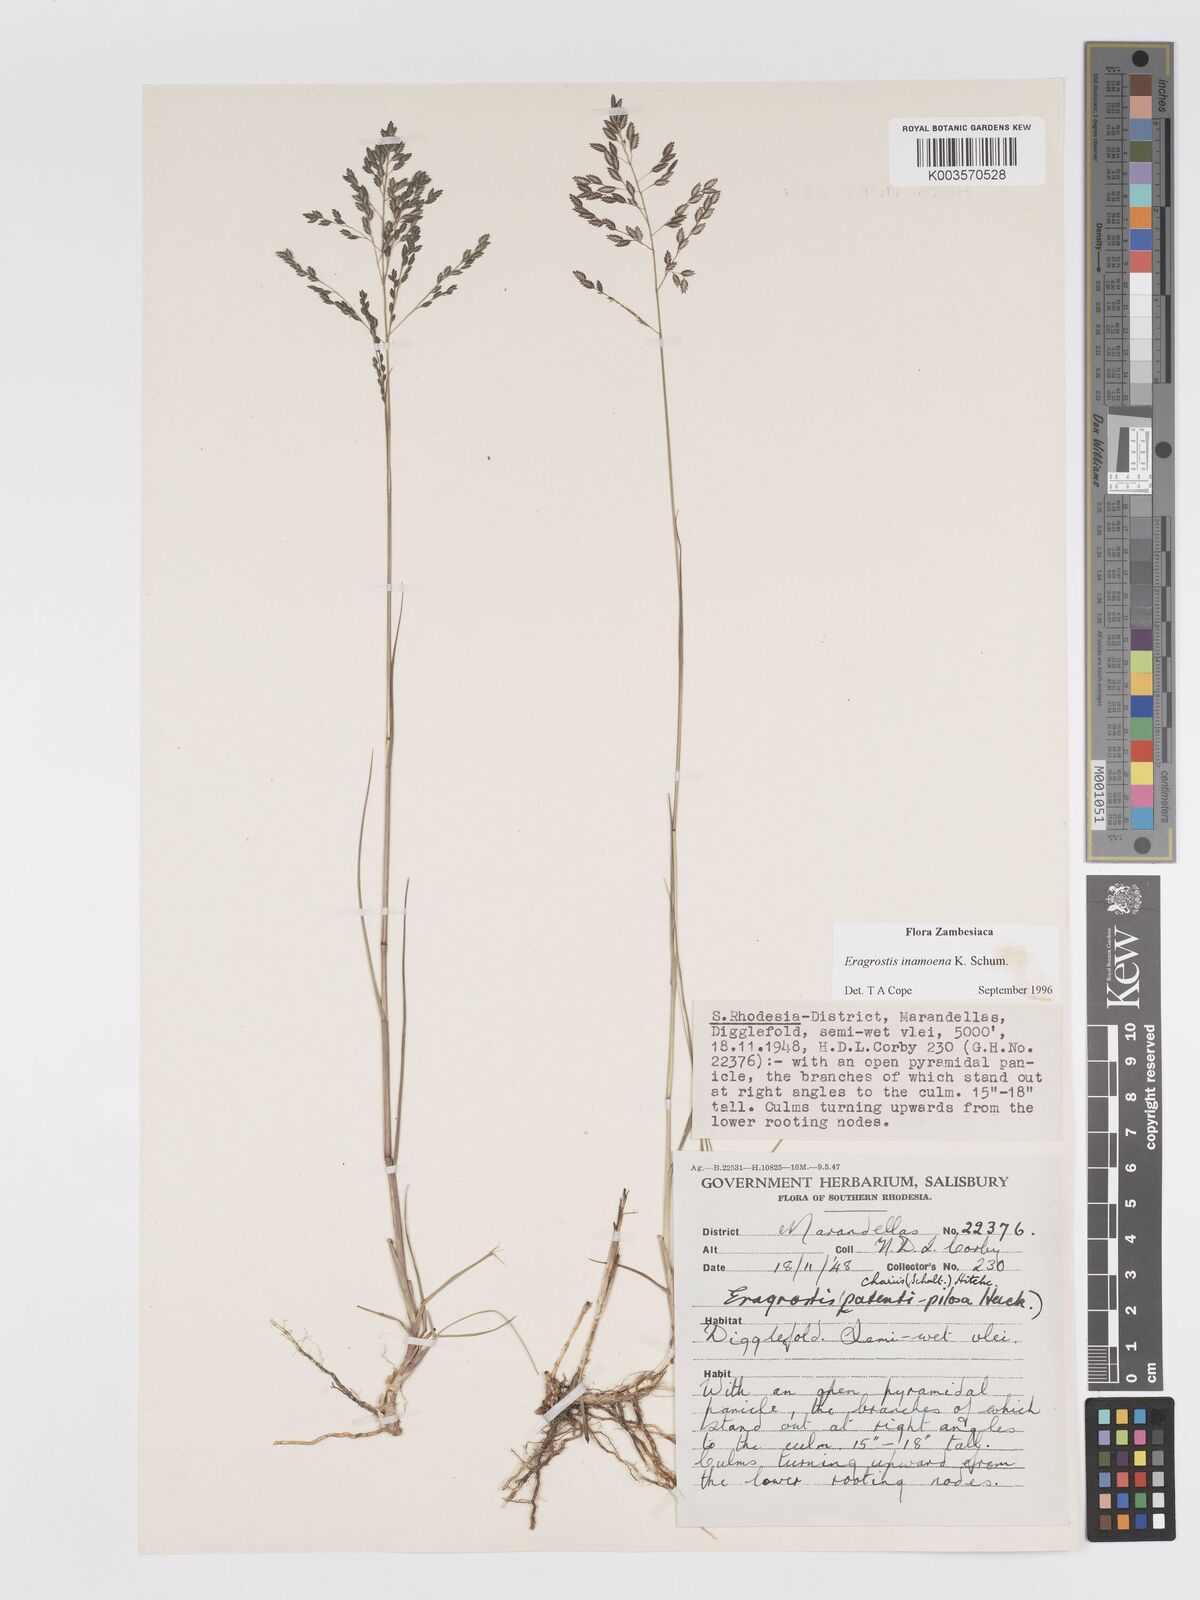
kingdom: Plantae
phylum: Tracheophyta
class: Liliopsida
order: Poales
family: Poaceae
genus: Eragrostis
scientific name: Eragrostis inamoena
